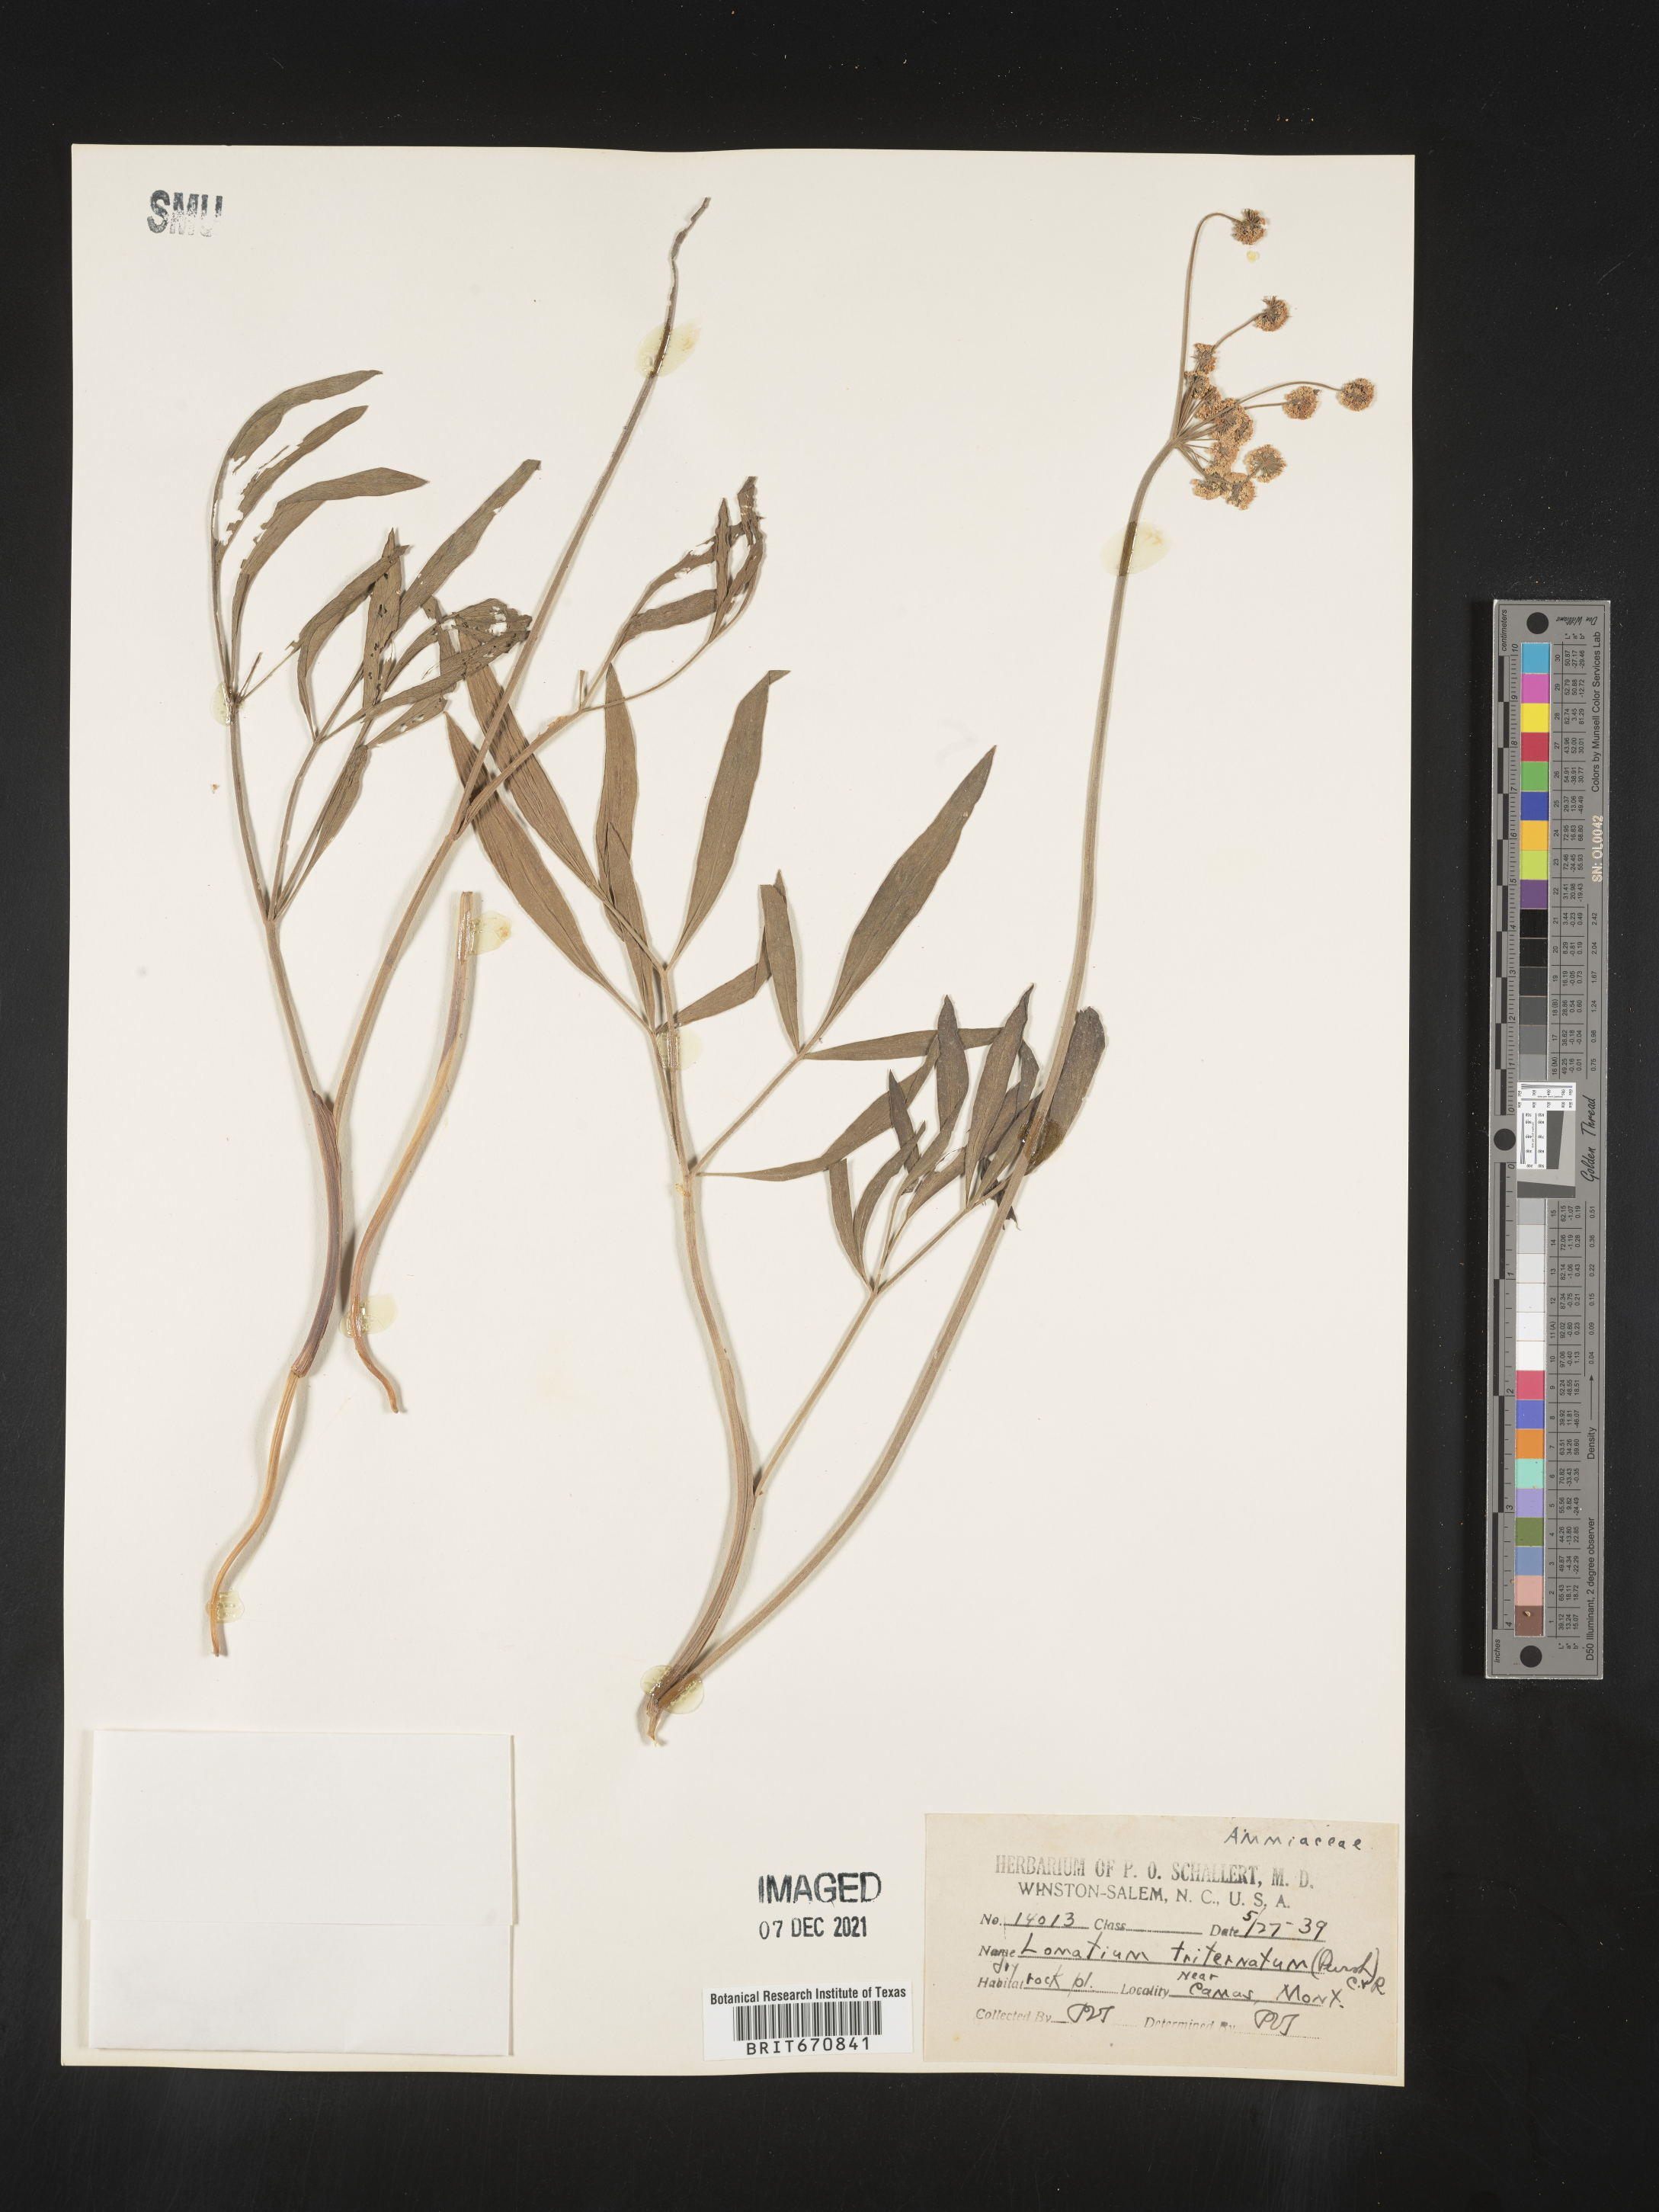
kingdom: Plantae
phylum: Tracheophyta
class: Magnoliopsida
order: Apiales
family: Apiaceae
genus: Lomatium
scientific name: Lomatium triternatum
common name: Ternate lomatium
